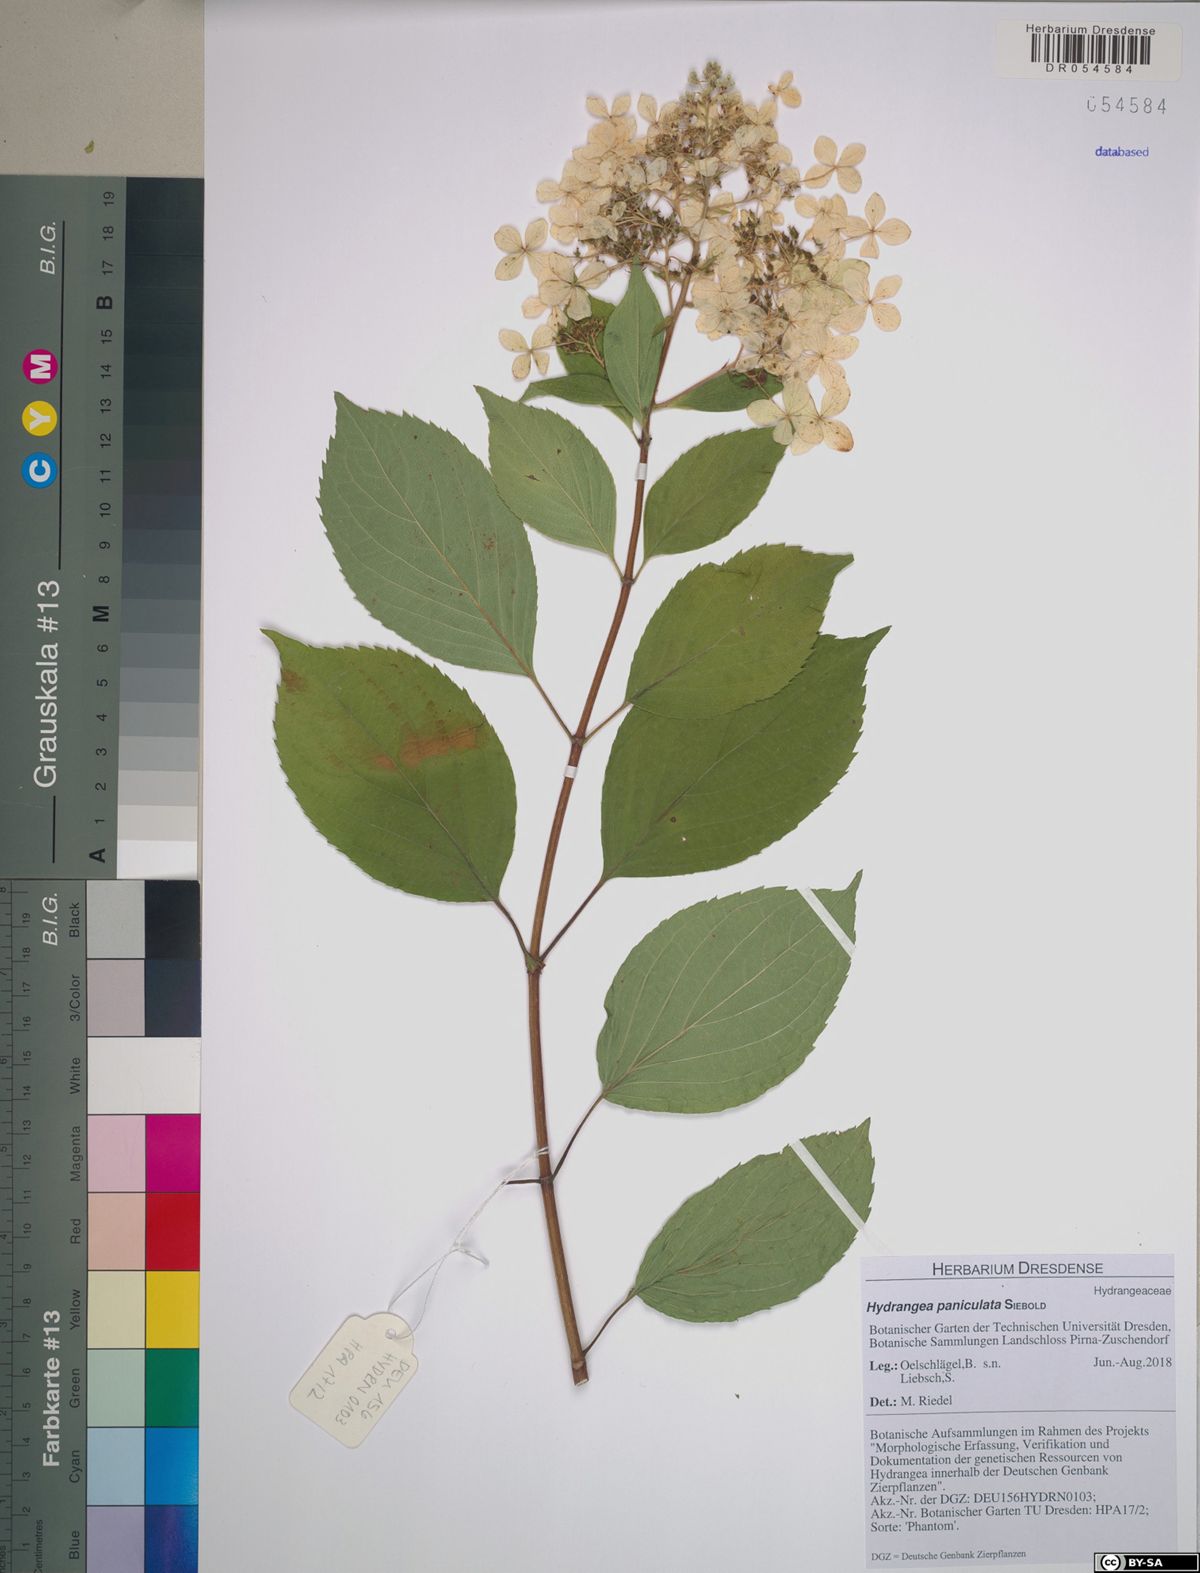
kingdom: Plantae
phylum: Tracheophyta
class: Magnoliopsida
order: Cornales
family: Hydrangeaceae
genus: Hydrangea
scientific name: Hydrangea paniculata
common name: Panicled hydrangea
